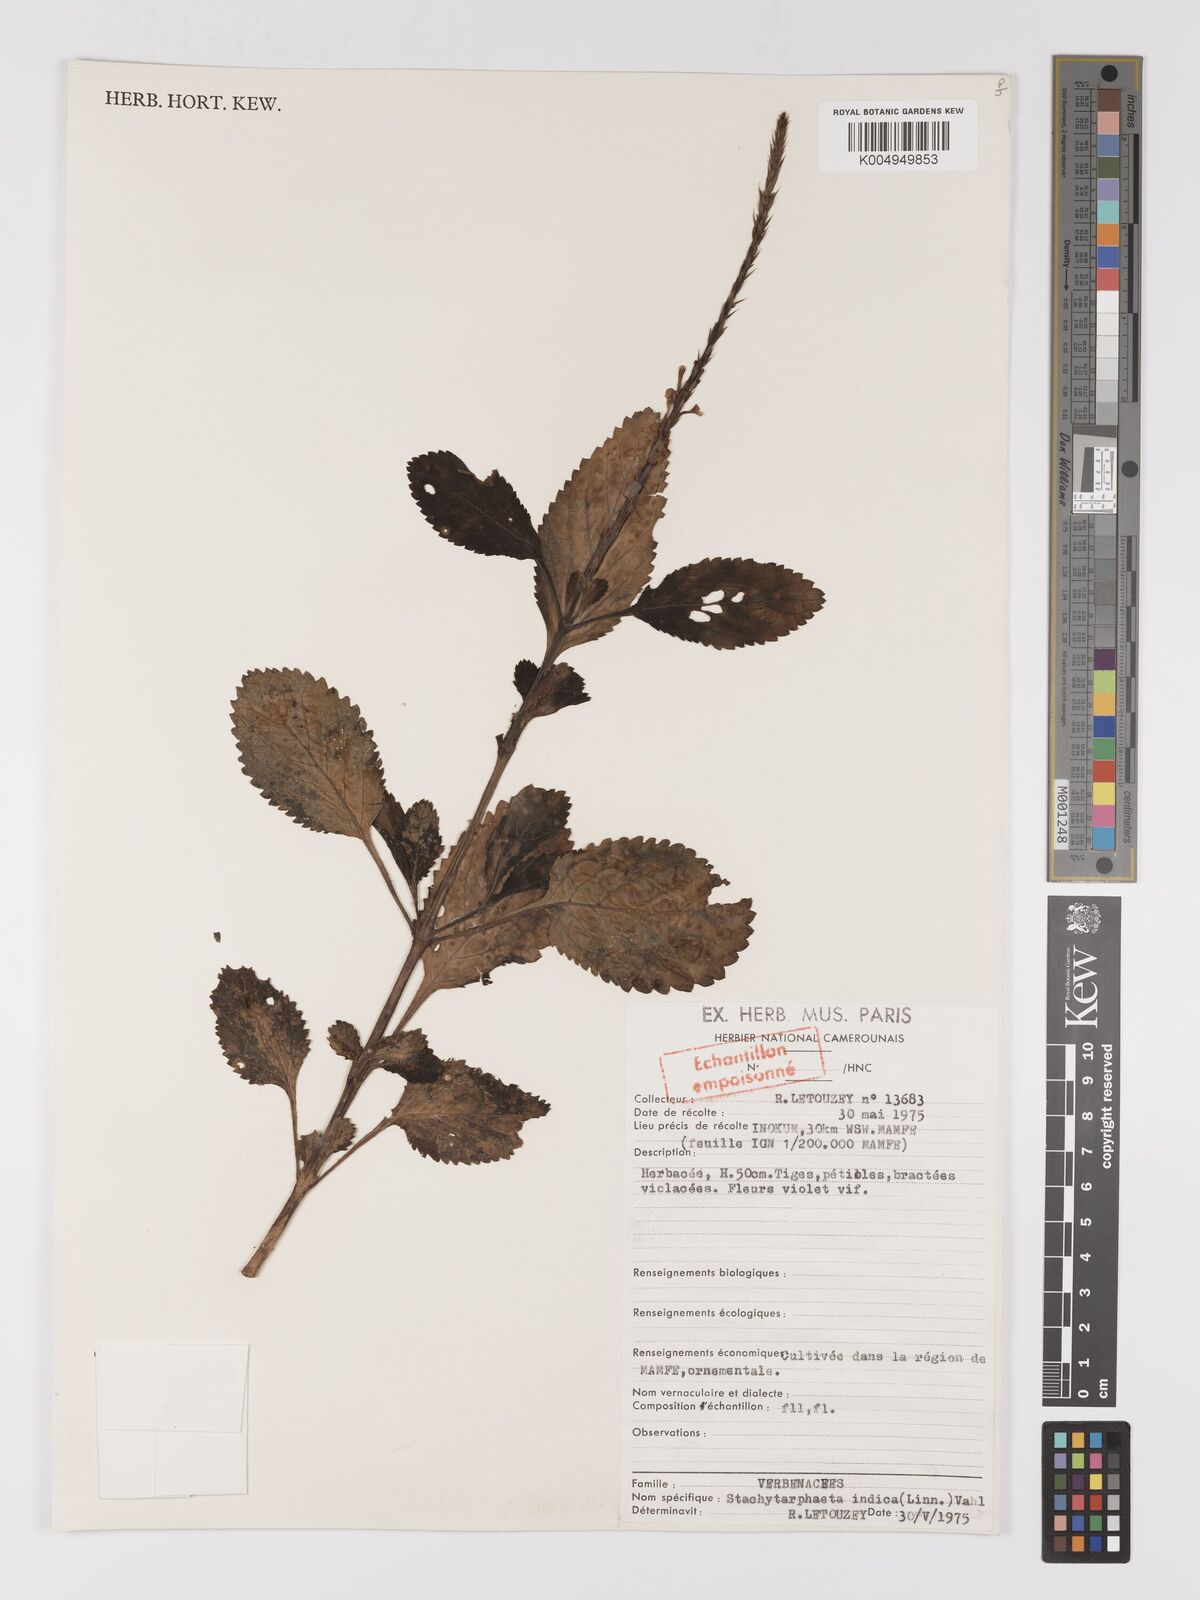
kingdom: Plantae
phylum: Tracheophyta
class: Magnoliopsida
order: Lamiales
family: Verbenaceae
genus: Stachytarpheta
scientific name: Stachytarpheta indica
